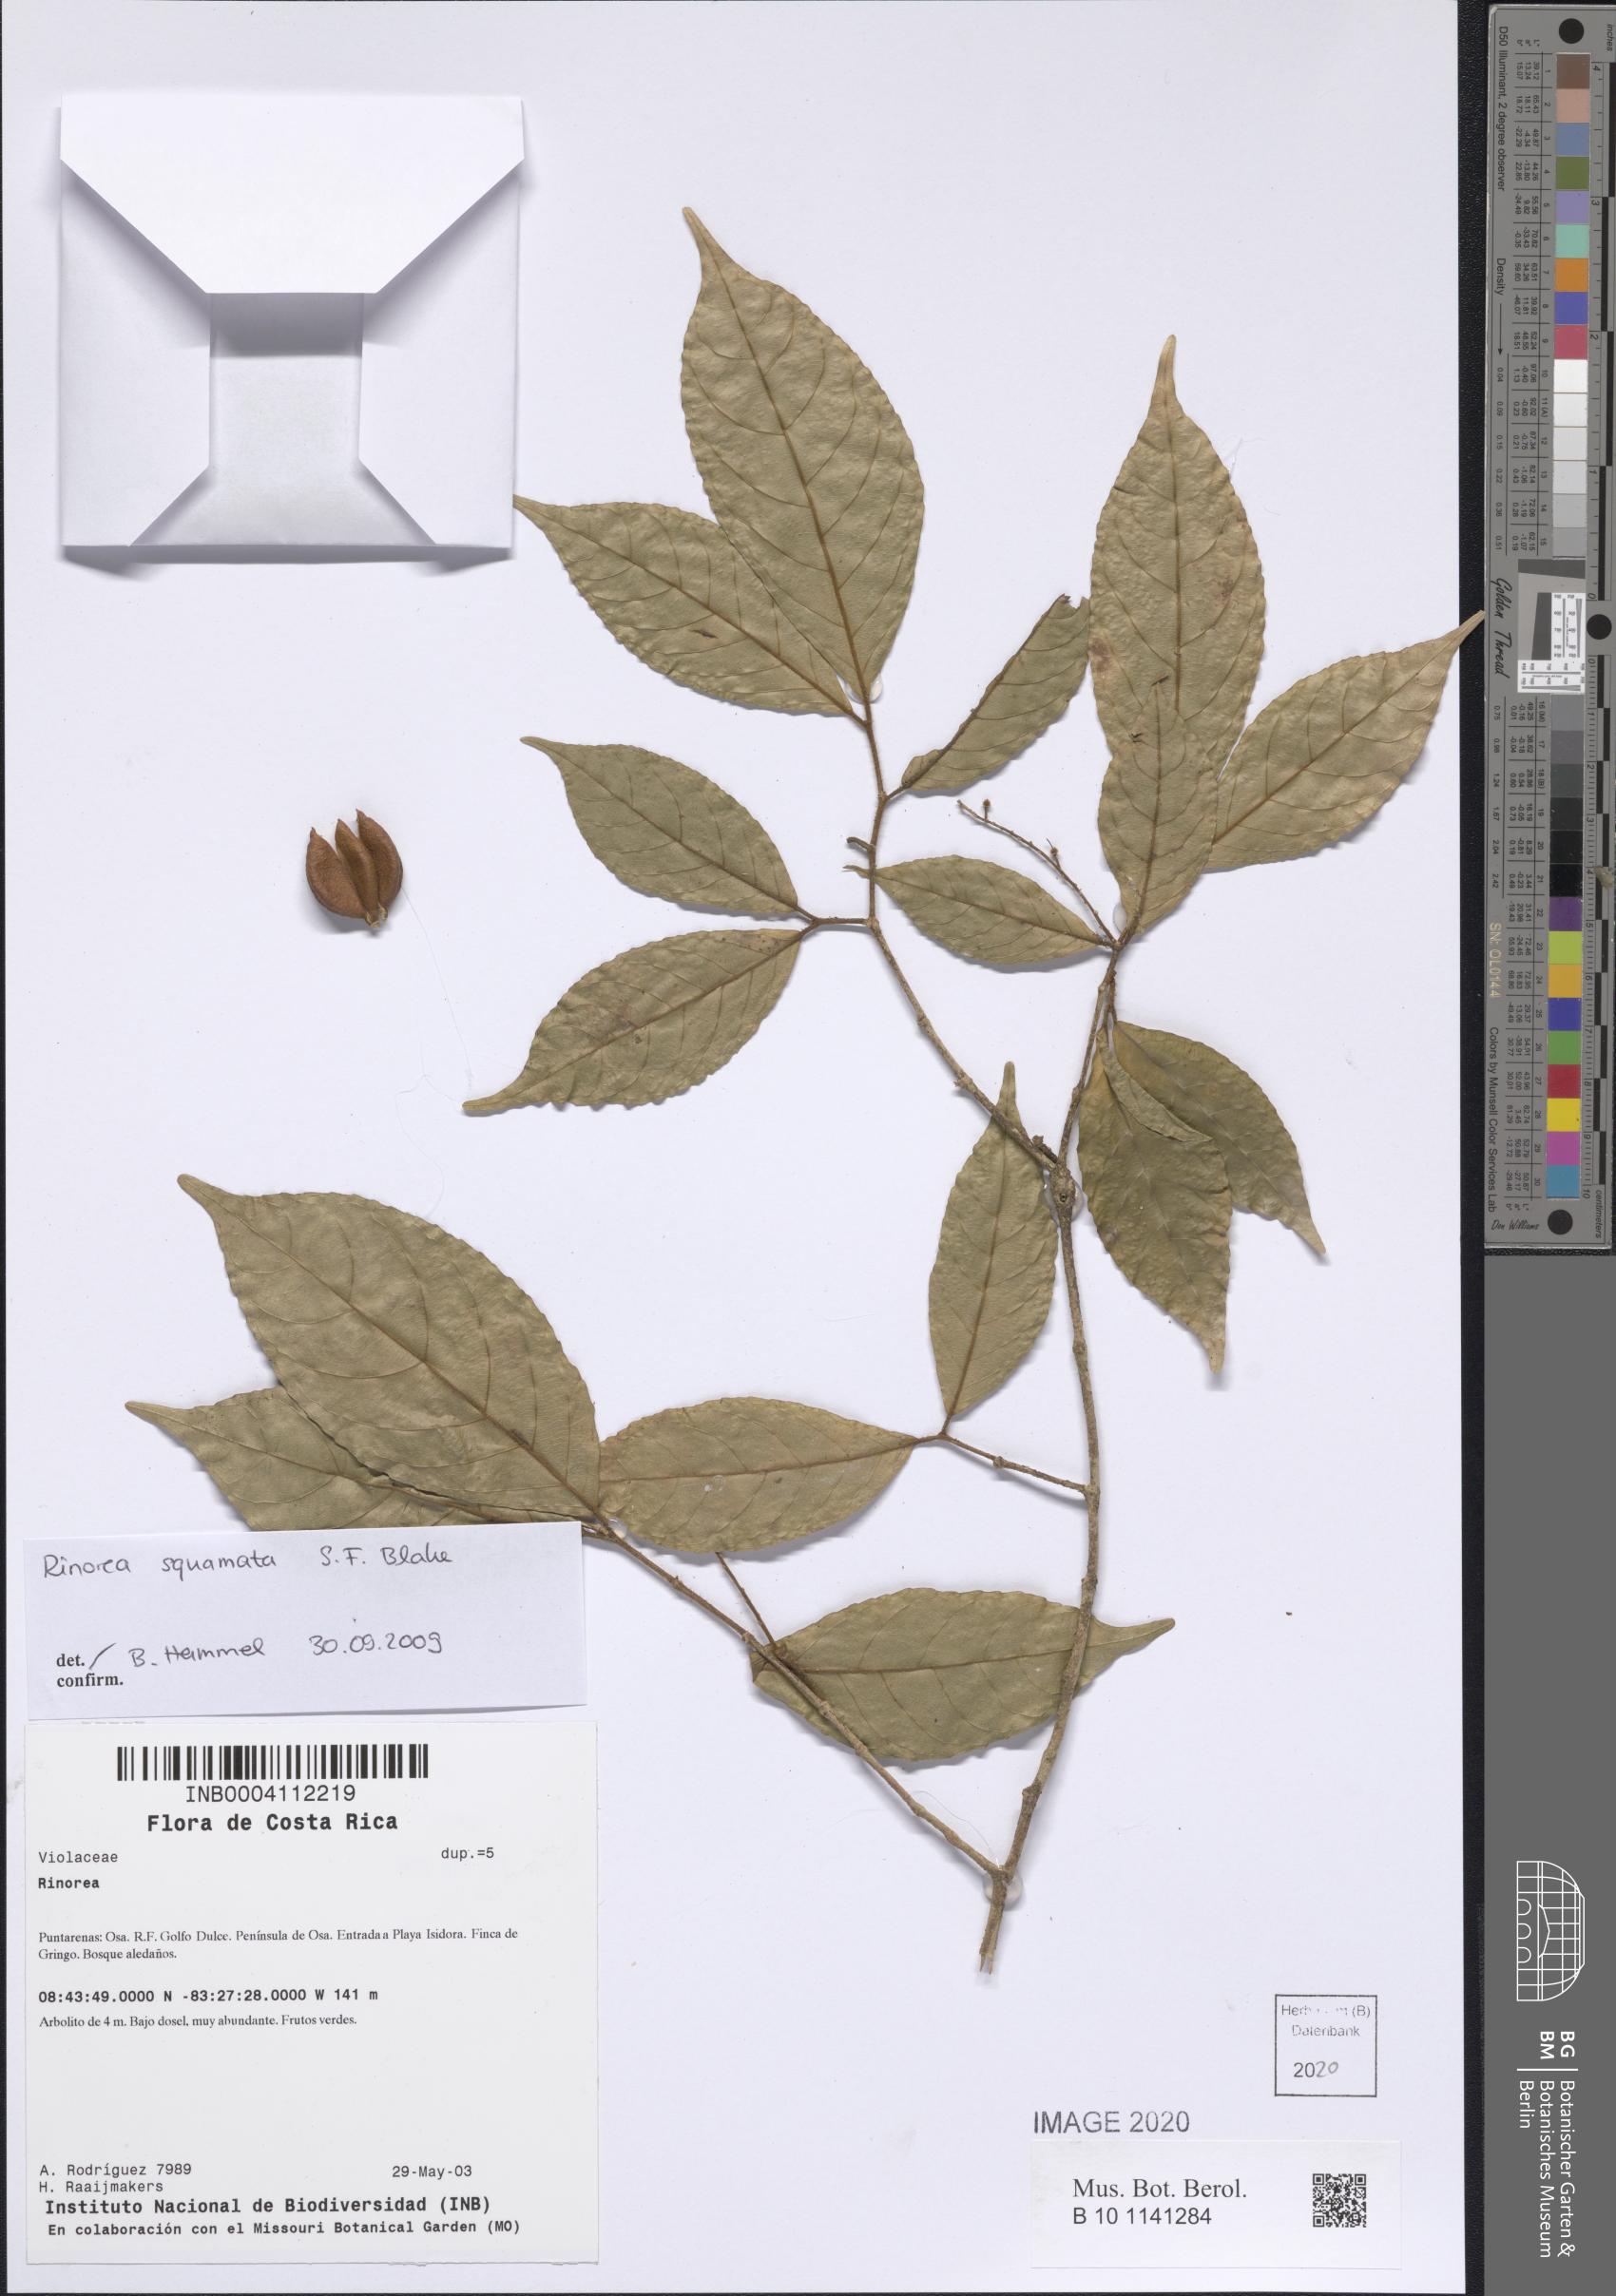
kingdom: Plantae
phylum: Tracheophyta
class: Magnoliopsida
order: Malpighiales
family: Violaceae
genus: Rinorea
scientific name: Rinorea squamata
